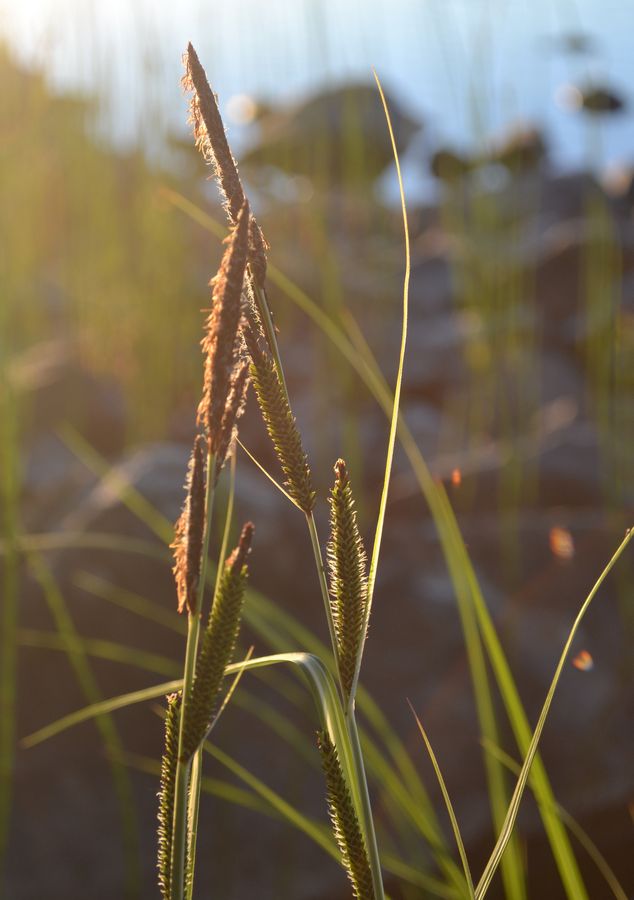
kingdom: Plantae
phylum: Tracheophyta
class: Liliopsida
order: Poales
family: Cyperaceae
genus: Carex
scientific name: Carex acuta
